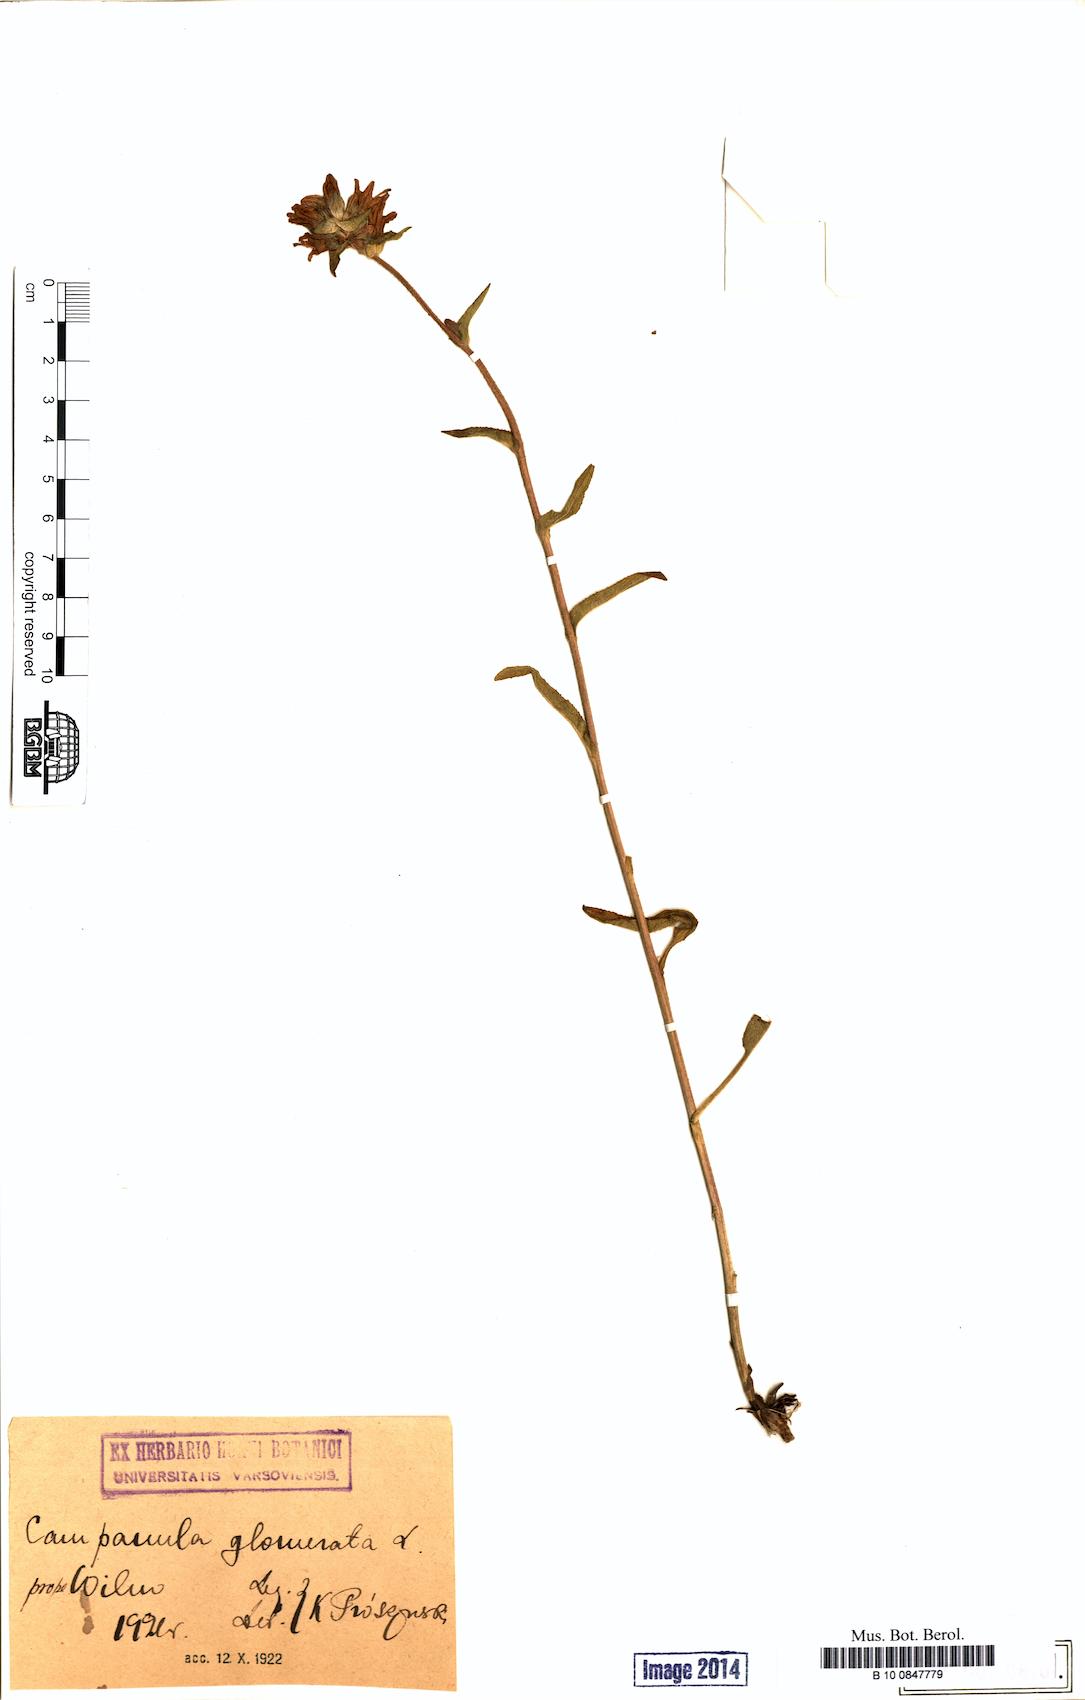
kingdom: Plantae
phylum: Tracheophyta
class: Magnoliopsida
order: Asterales
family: Campanulaceae
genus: Campanula
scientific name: Campanula glomerata
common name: Clustered bellflower
